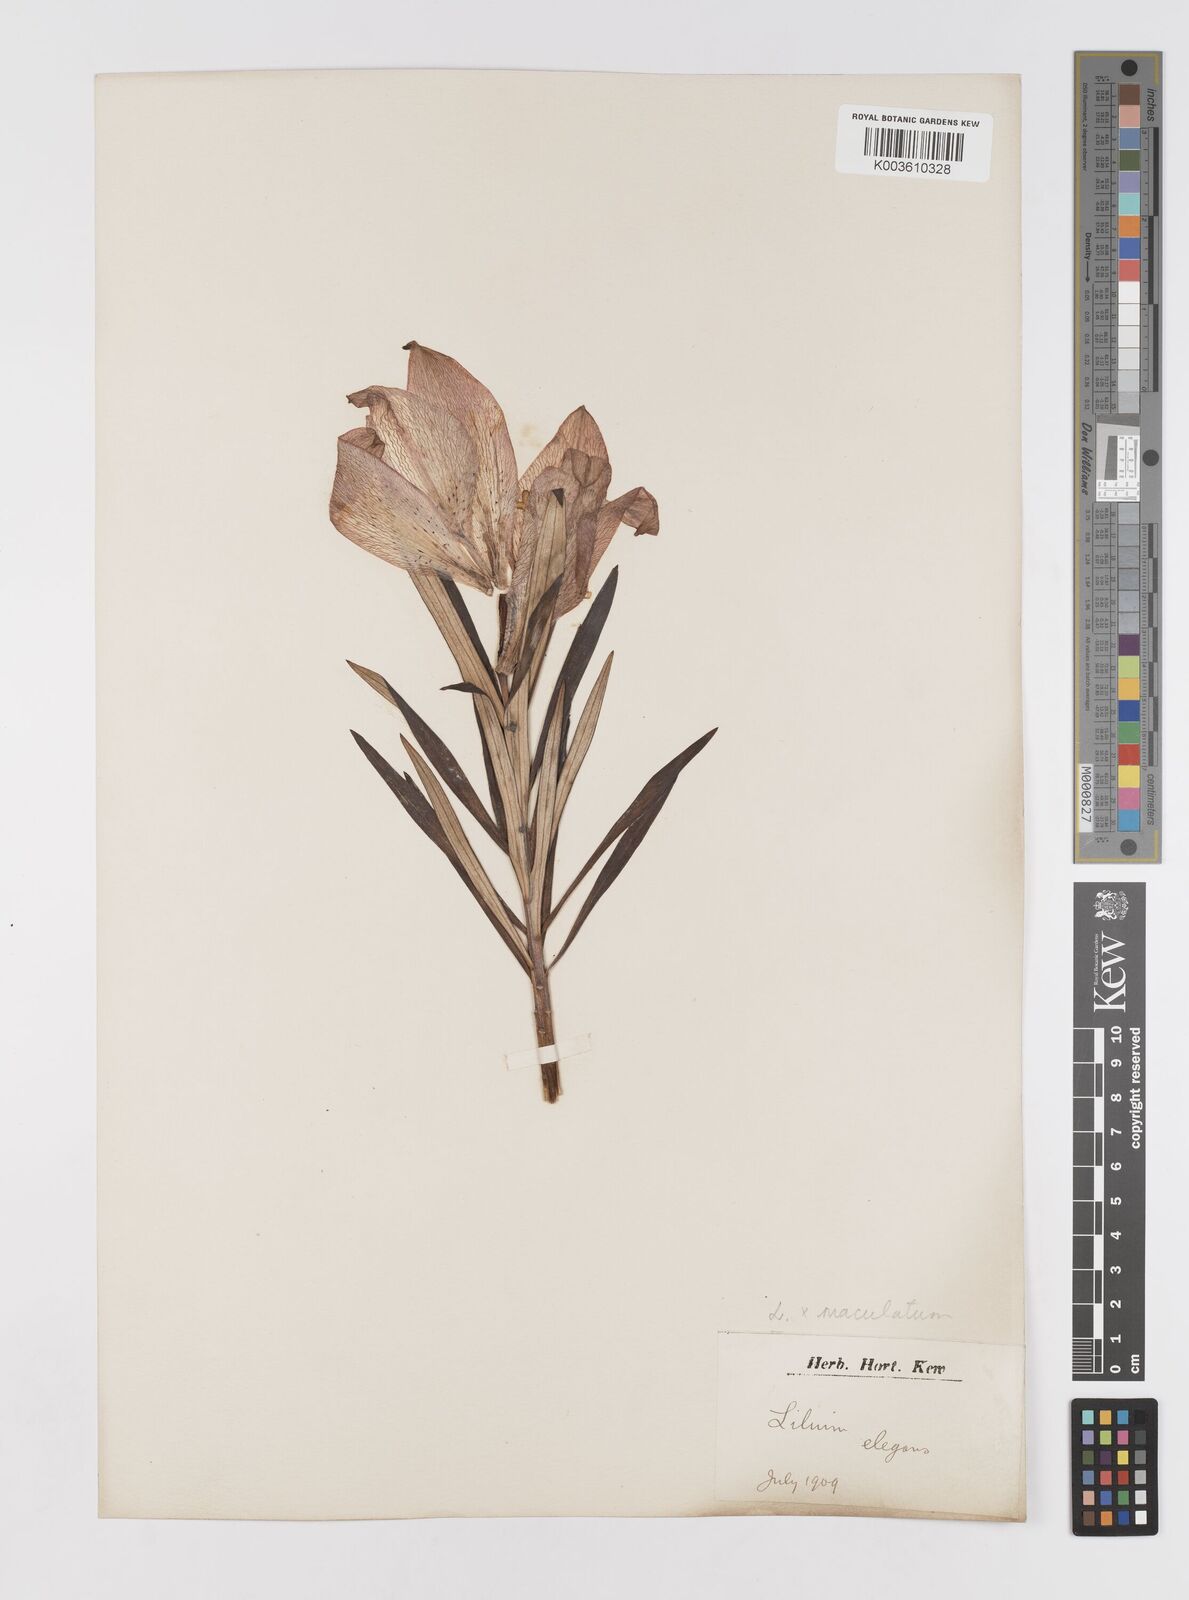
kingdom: Plantae
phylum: Tracheophyta
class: Liliopsida
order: Liliales
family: Liliaceae
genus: Lilium
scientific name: Lilium maculatum
